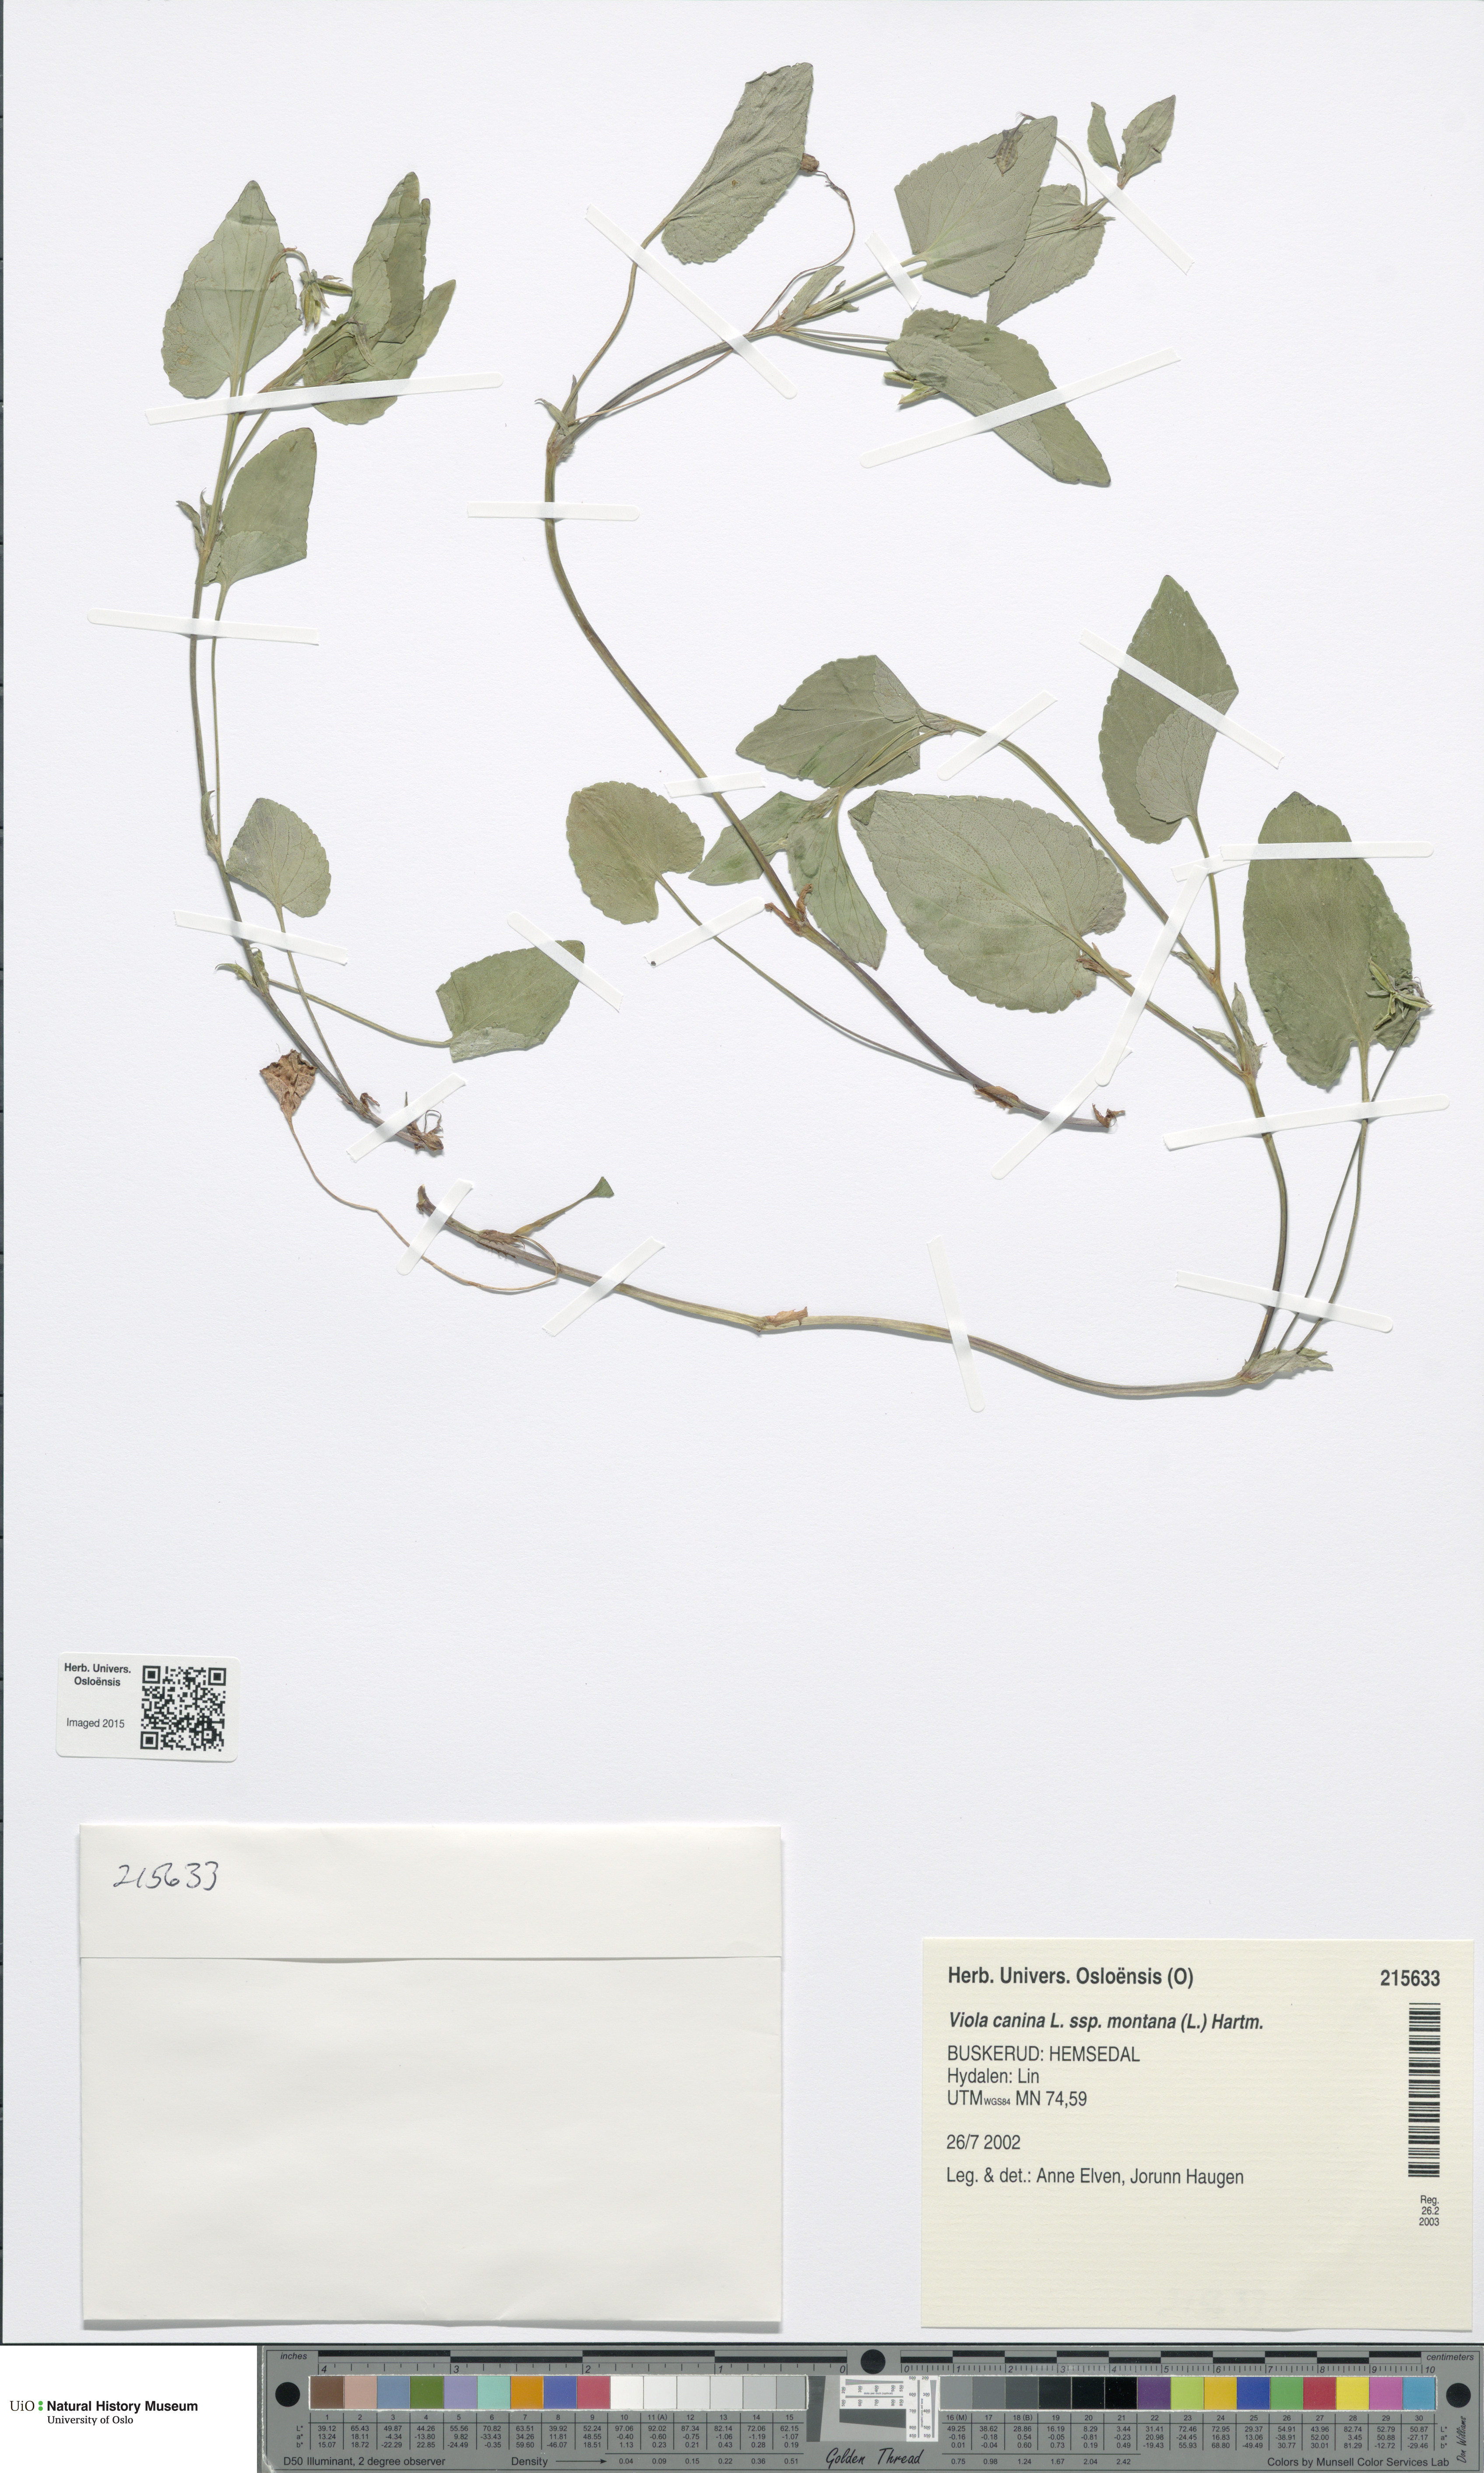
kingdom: Plantae
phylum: Tracheophyta
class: Magnoliopsida
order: Malpighiales
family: Violaceae
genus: Viola
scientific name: Viola ruppii
